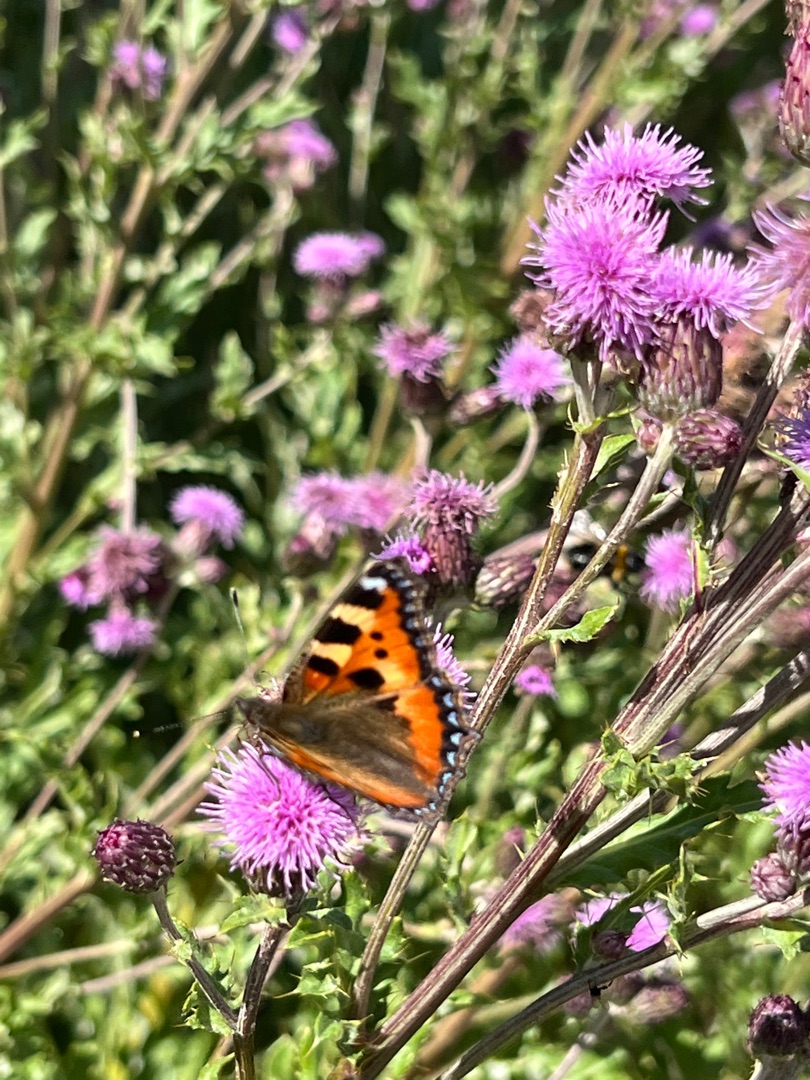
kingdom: Animalia
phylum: Arthropoda
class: Insecta
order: Lepidoptera
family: Nymphalidae
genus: Aglais
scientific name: Aglais urticae
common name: Nældens takvinge
